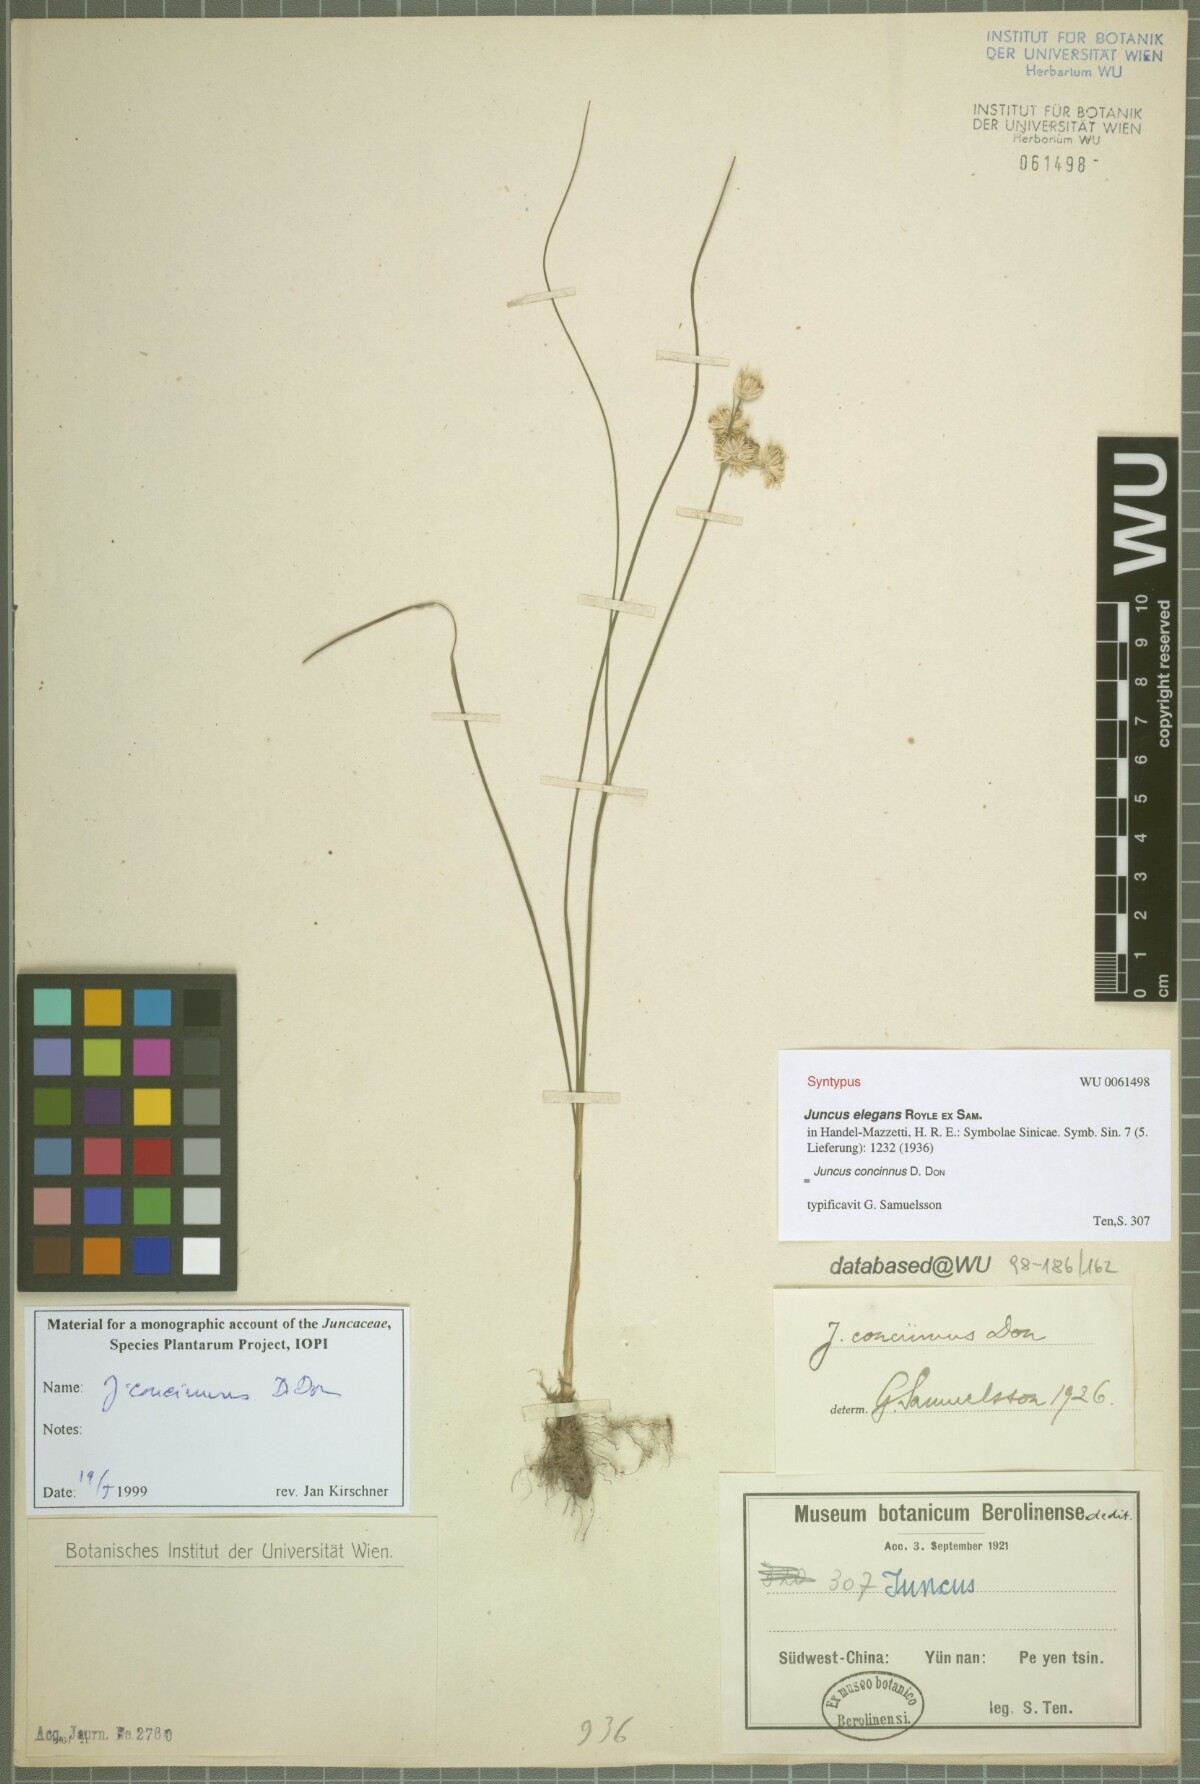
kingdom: Plantae
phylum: Tracheophyta
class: Liliopsida
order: Poales
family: Juncaceae
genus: Juncus
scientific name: Juncus concinnus
